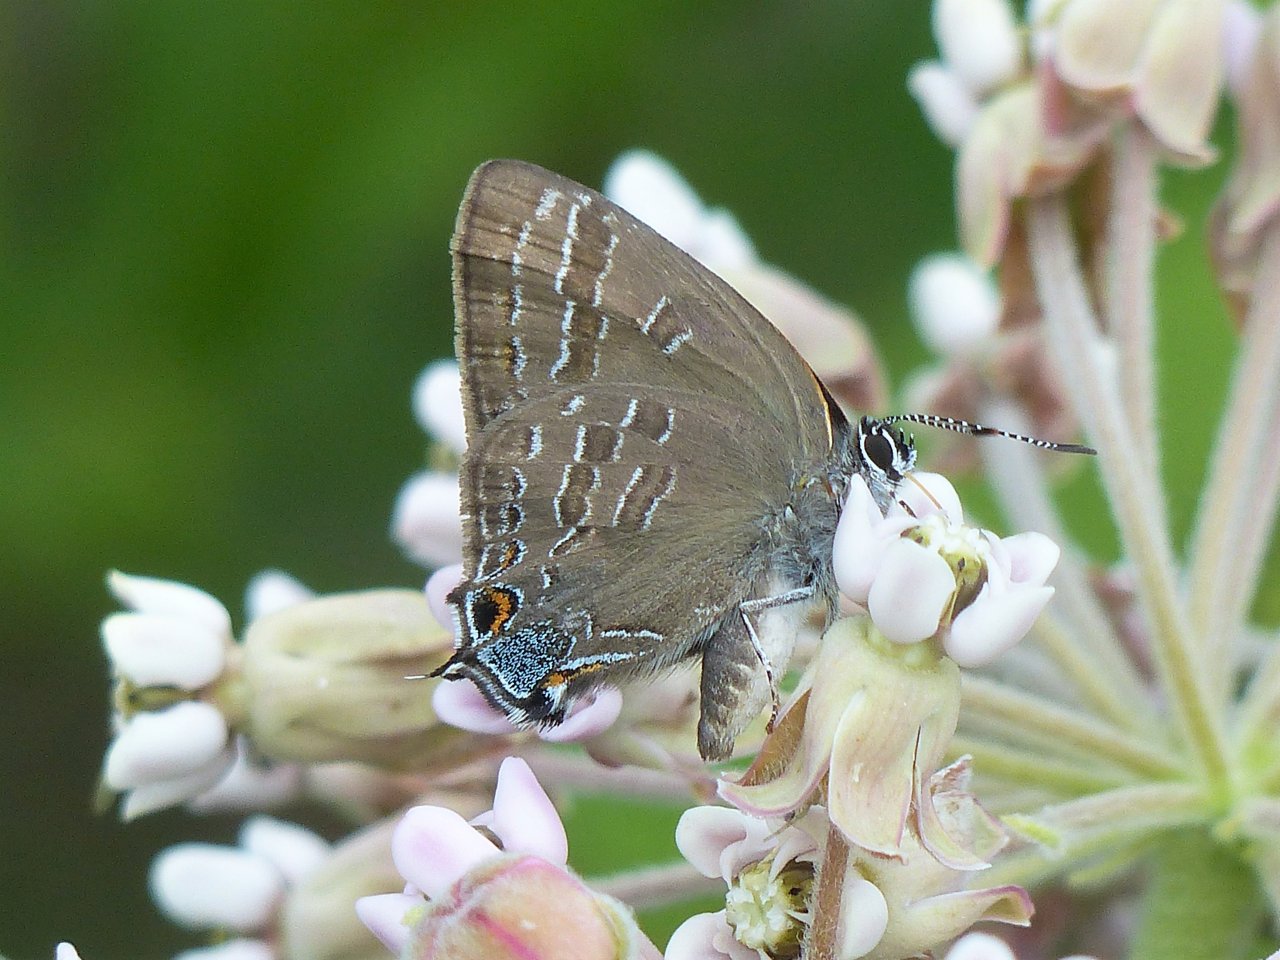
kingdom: Animalia
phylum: Arthropoda
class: Insecta
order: Lepidoptera
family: Lycaenidae
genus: Strymon
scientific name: Strymon caryaevorus
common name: Hickory Hairstreak
